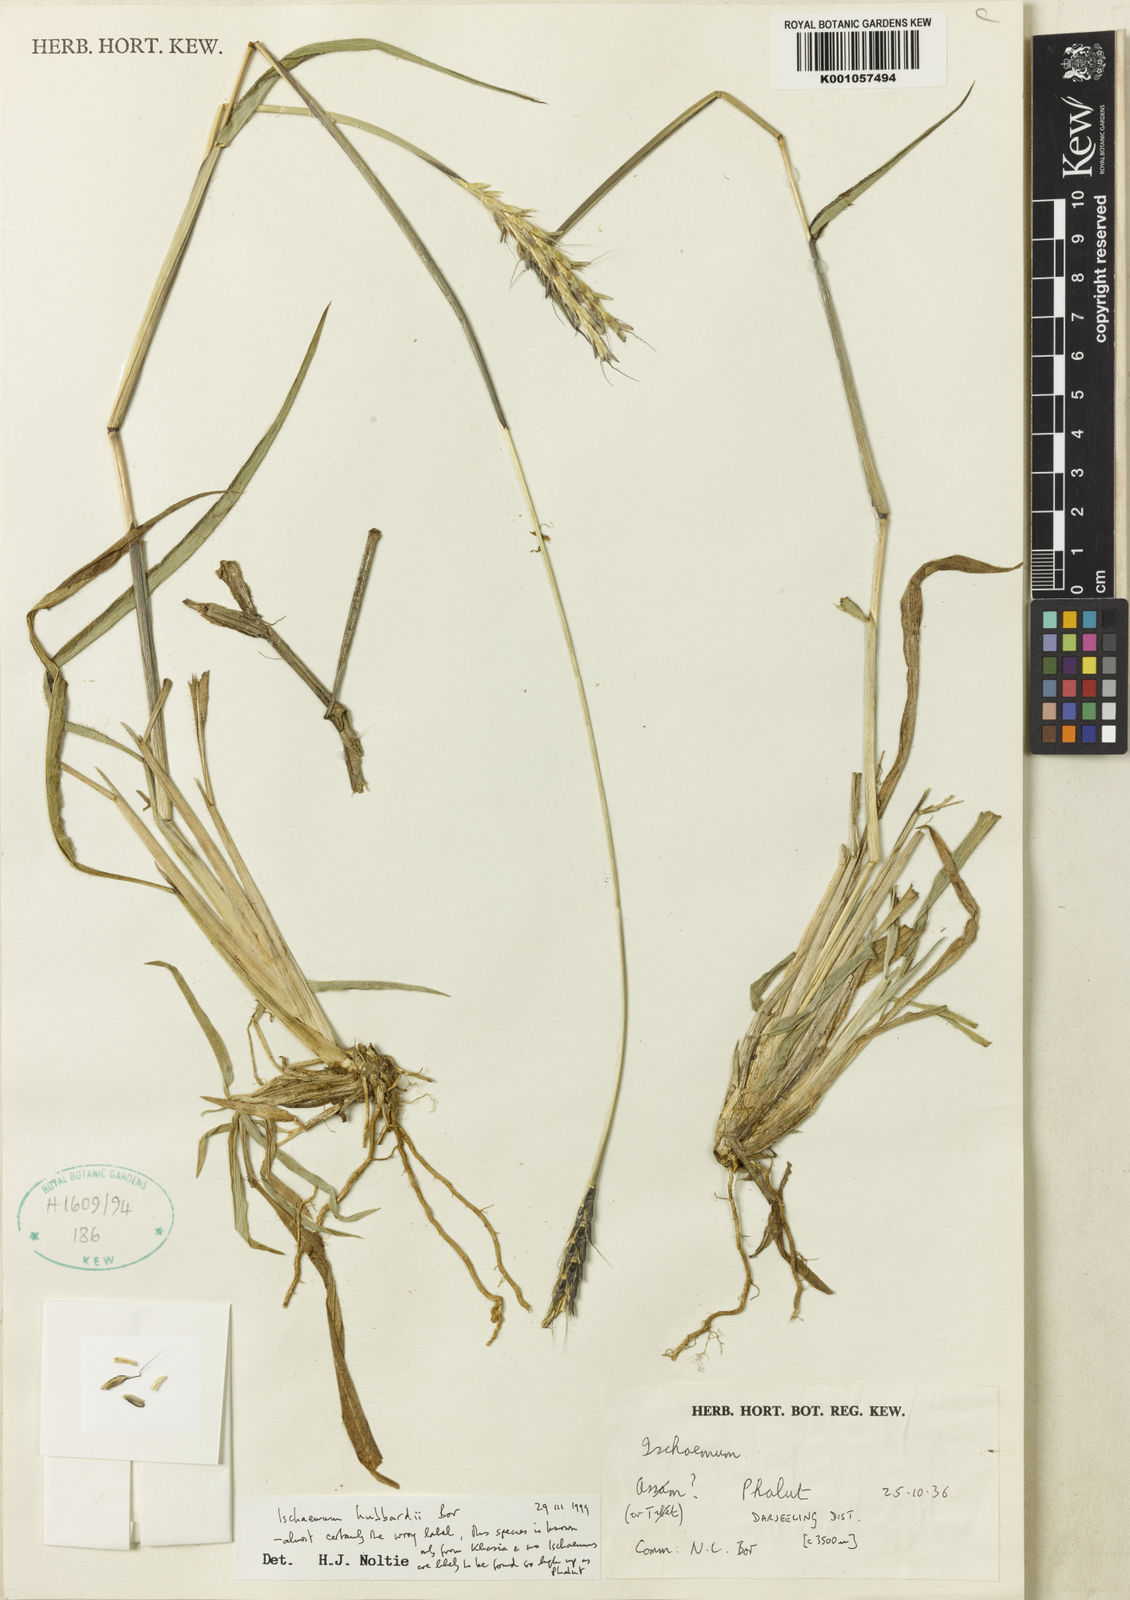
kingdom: Plantae
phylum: Tracheophyta
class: Liliopsida
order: Poales
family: Poaceae
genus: Ischaemum
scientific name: Ischaemum hubbardii
